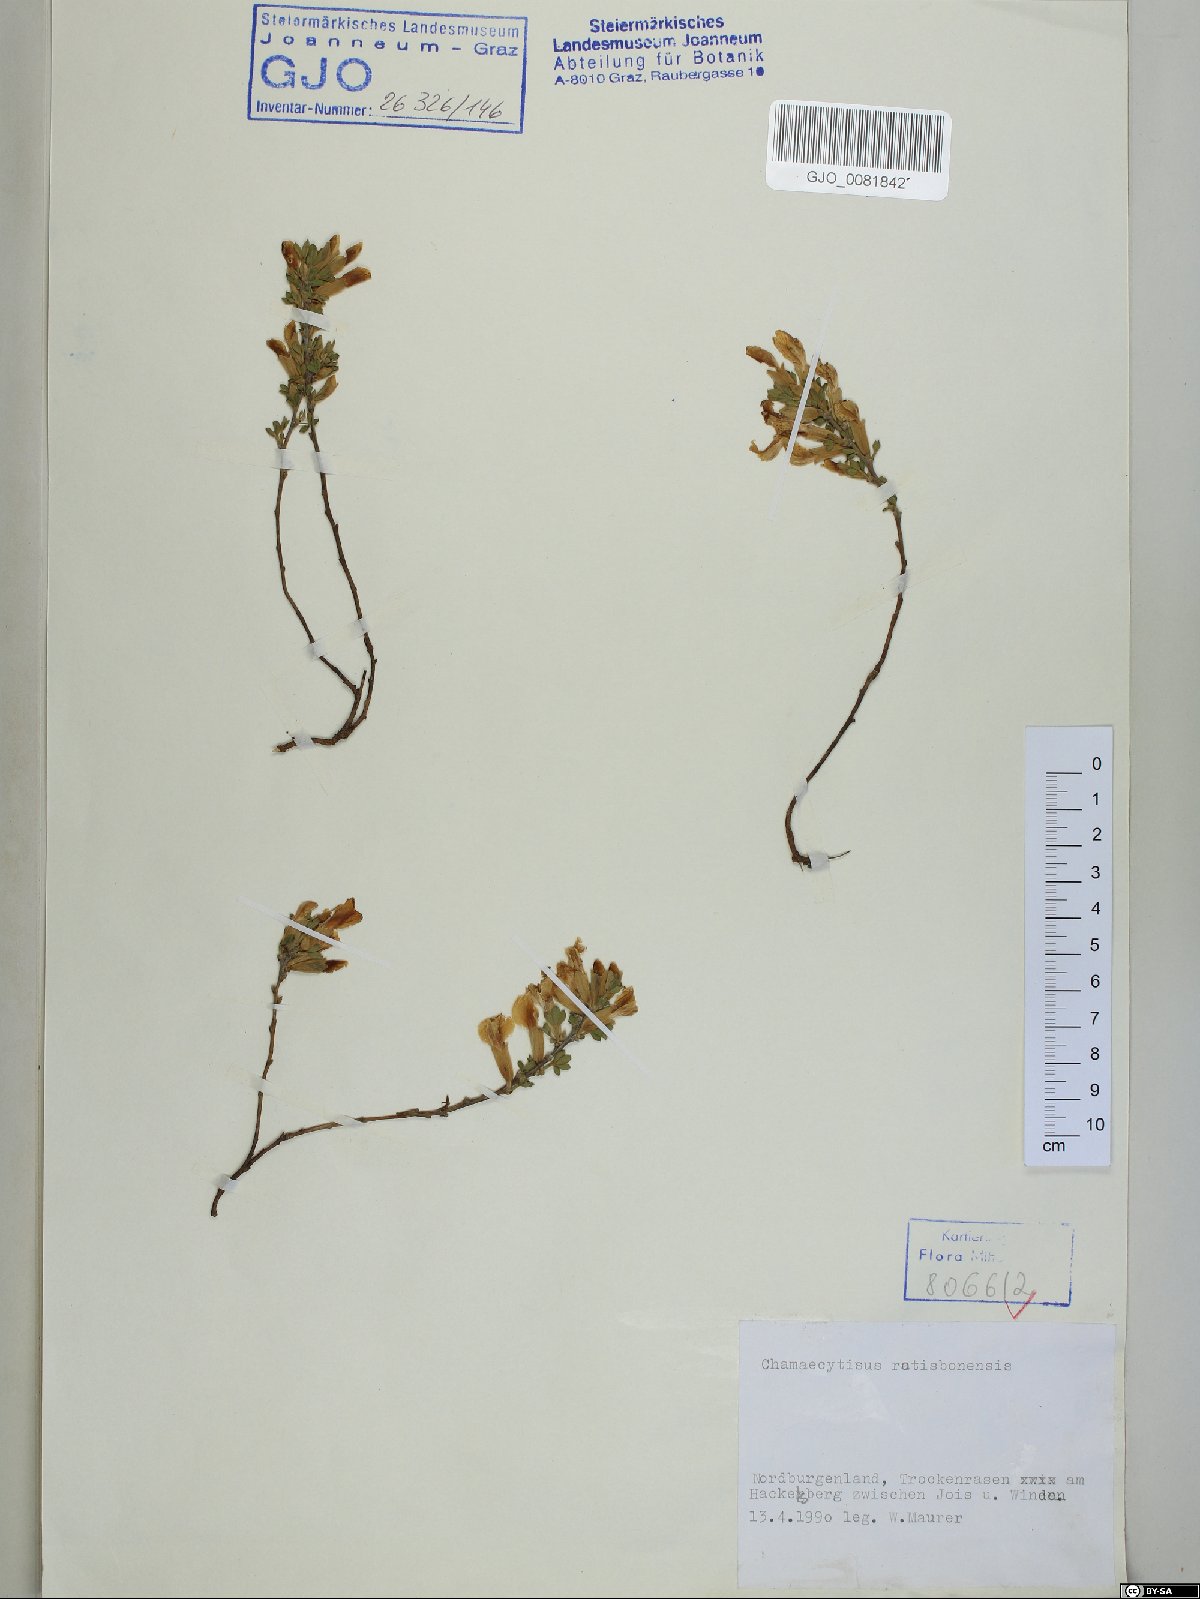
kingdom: Plantae
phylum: Tracheophyta
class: Magnoliopsida
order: Fabales
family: Fabaceae
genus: Chamaecytisus
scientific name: Chamaecytisus ratisbonensis
